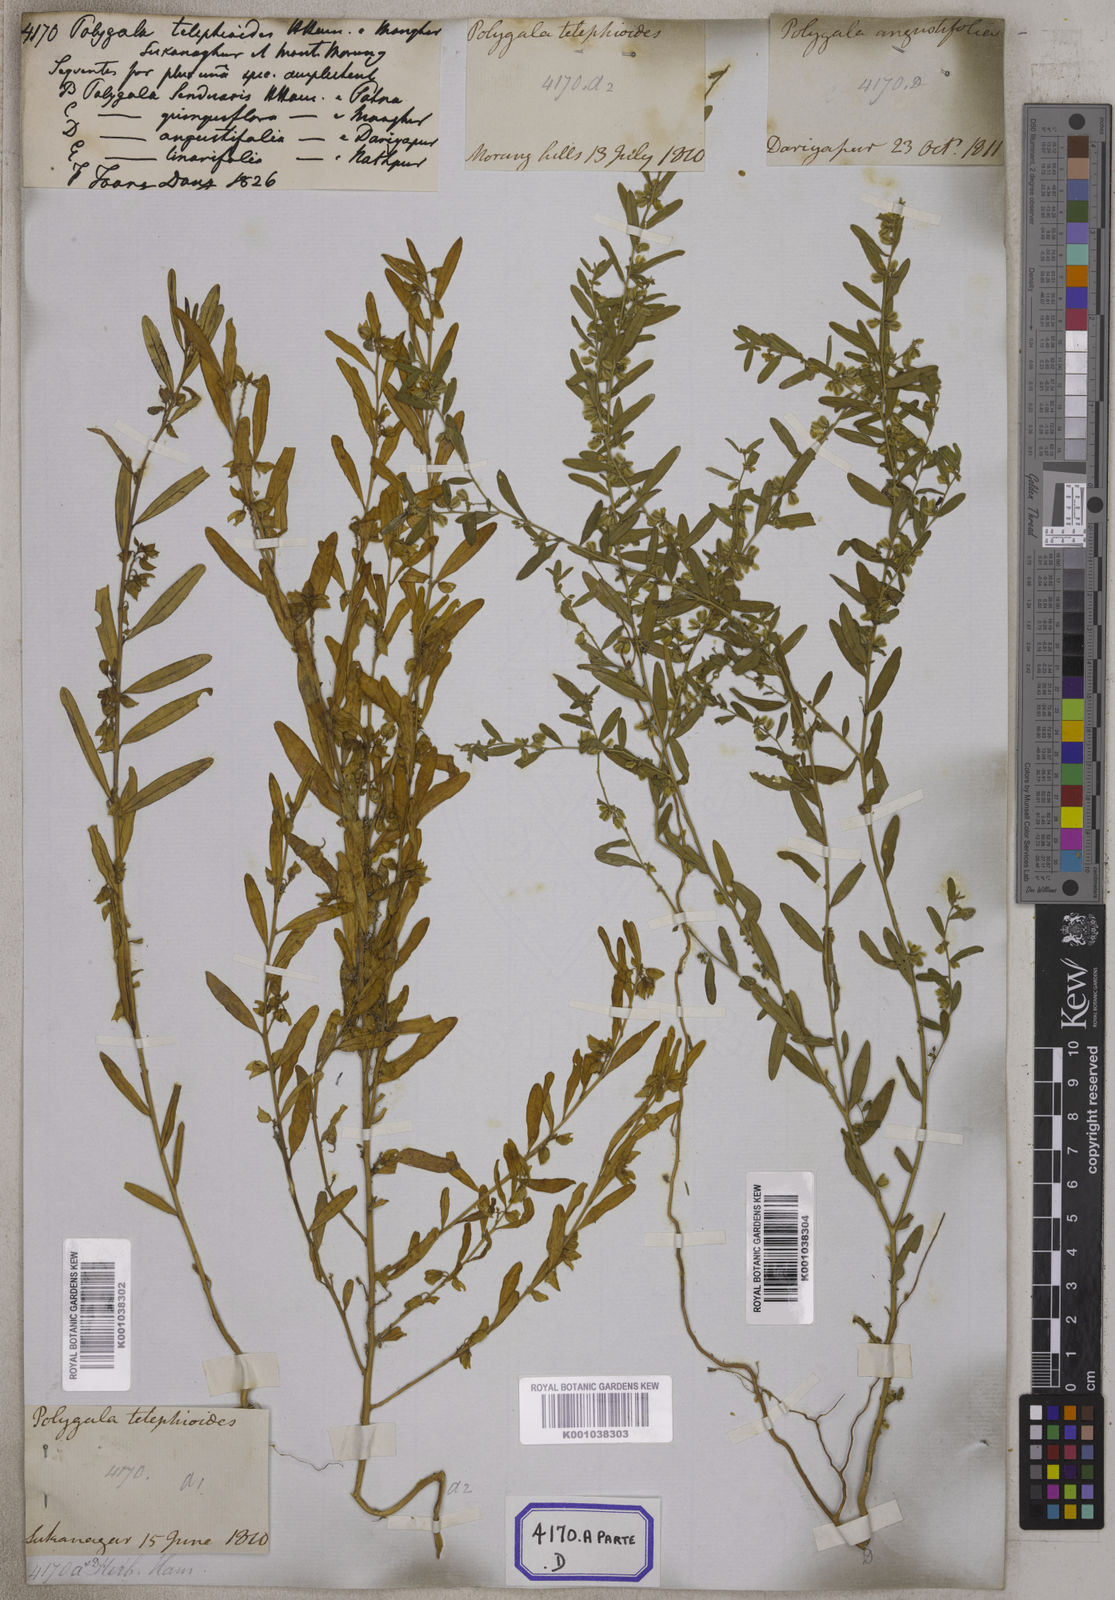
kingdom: Plantae
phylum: Tracheophyta
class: Magnoliopsida
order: Fabales
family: Polygalaceae
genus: Polygala
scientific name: Polygala telephioides
